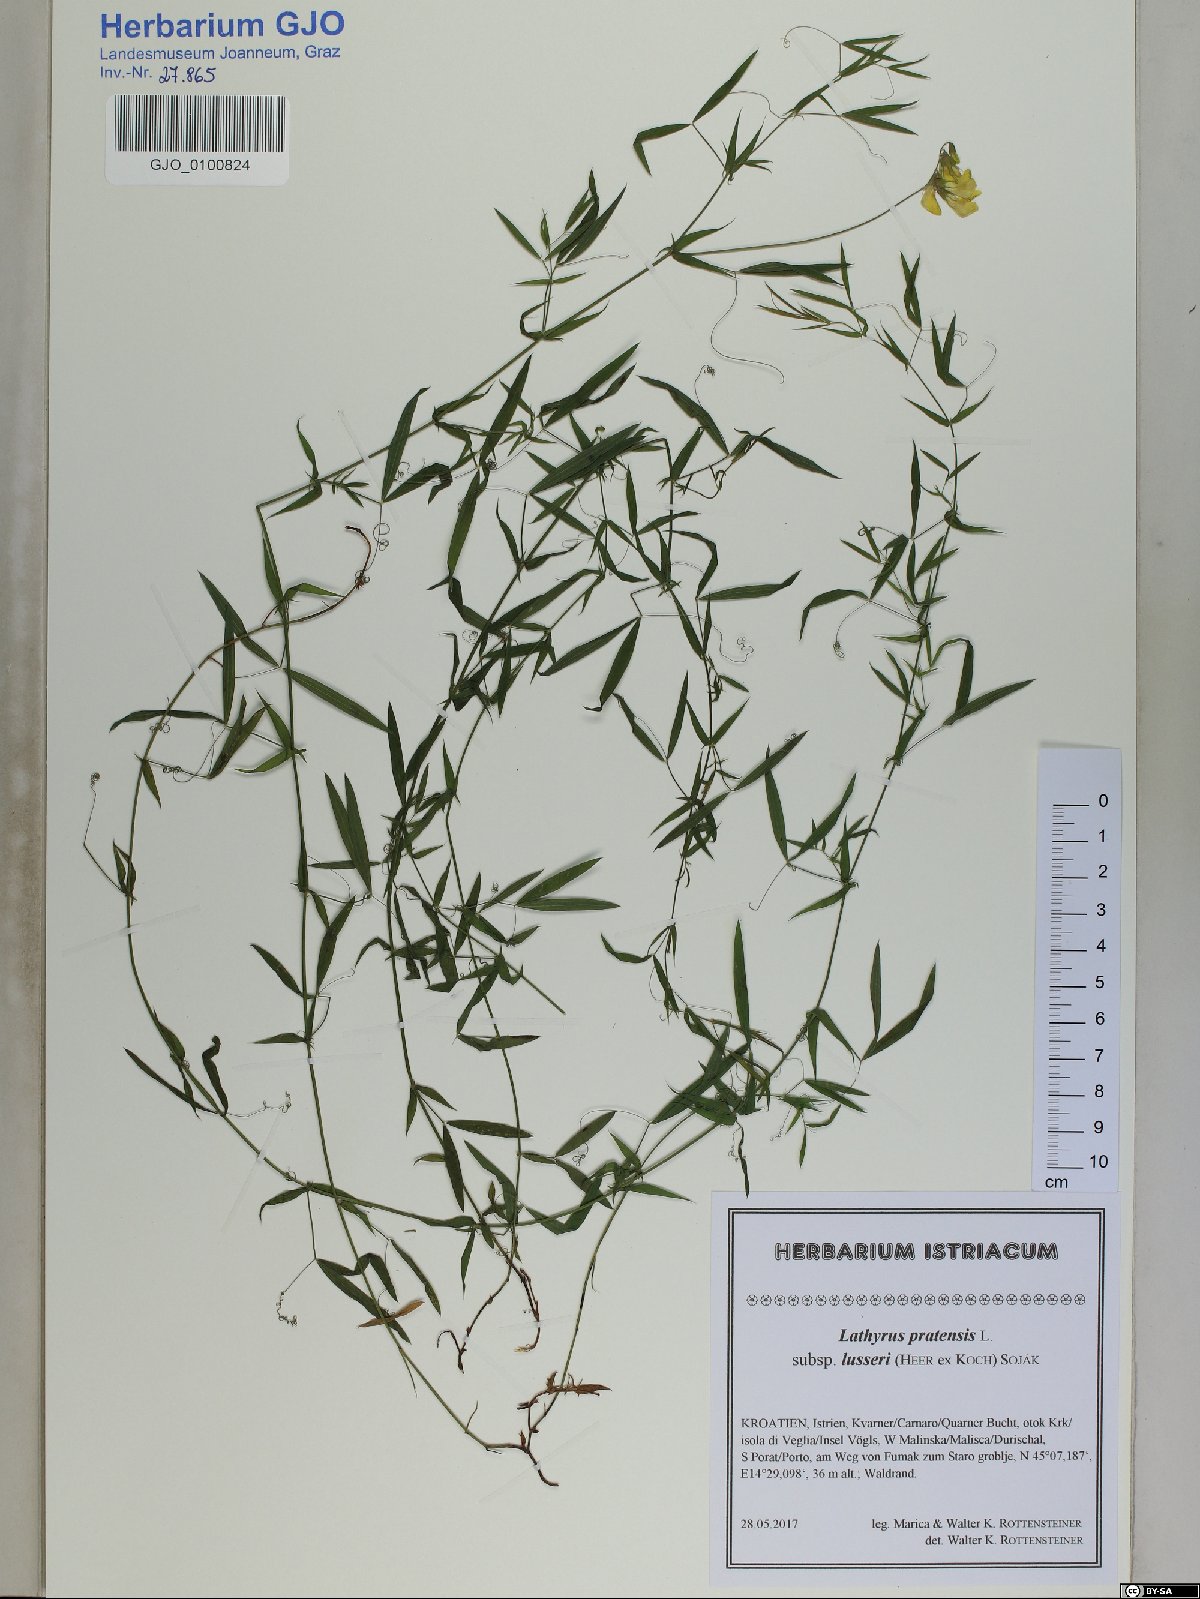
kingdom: Plantae
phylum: Tracheophyta
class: Magnoliopsida
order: Fabales
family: Fabaceae
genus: Lathyrus
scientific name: Lathyrus pratensis
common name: Meadow vetchling
